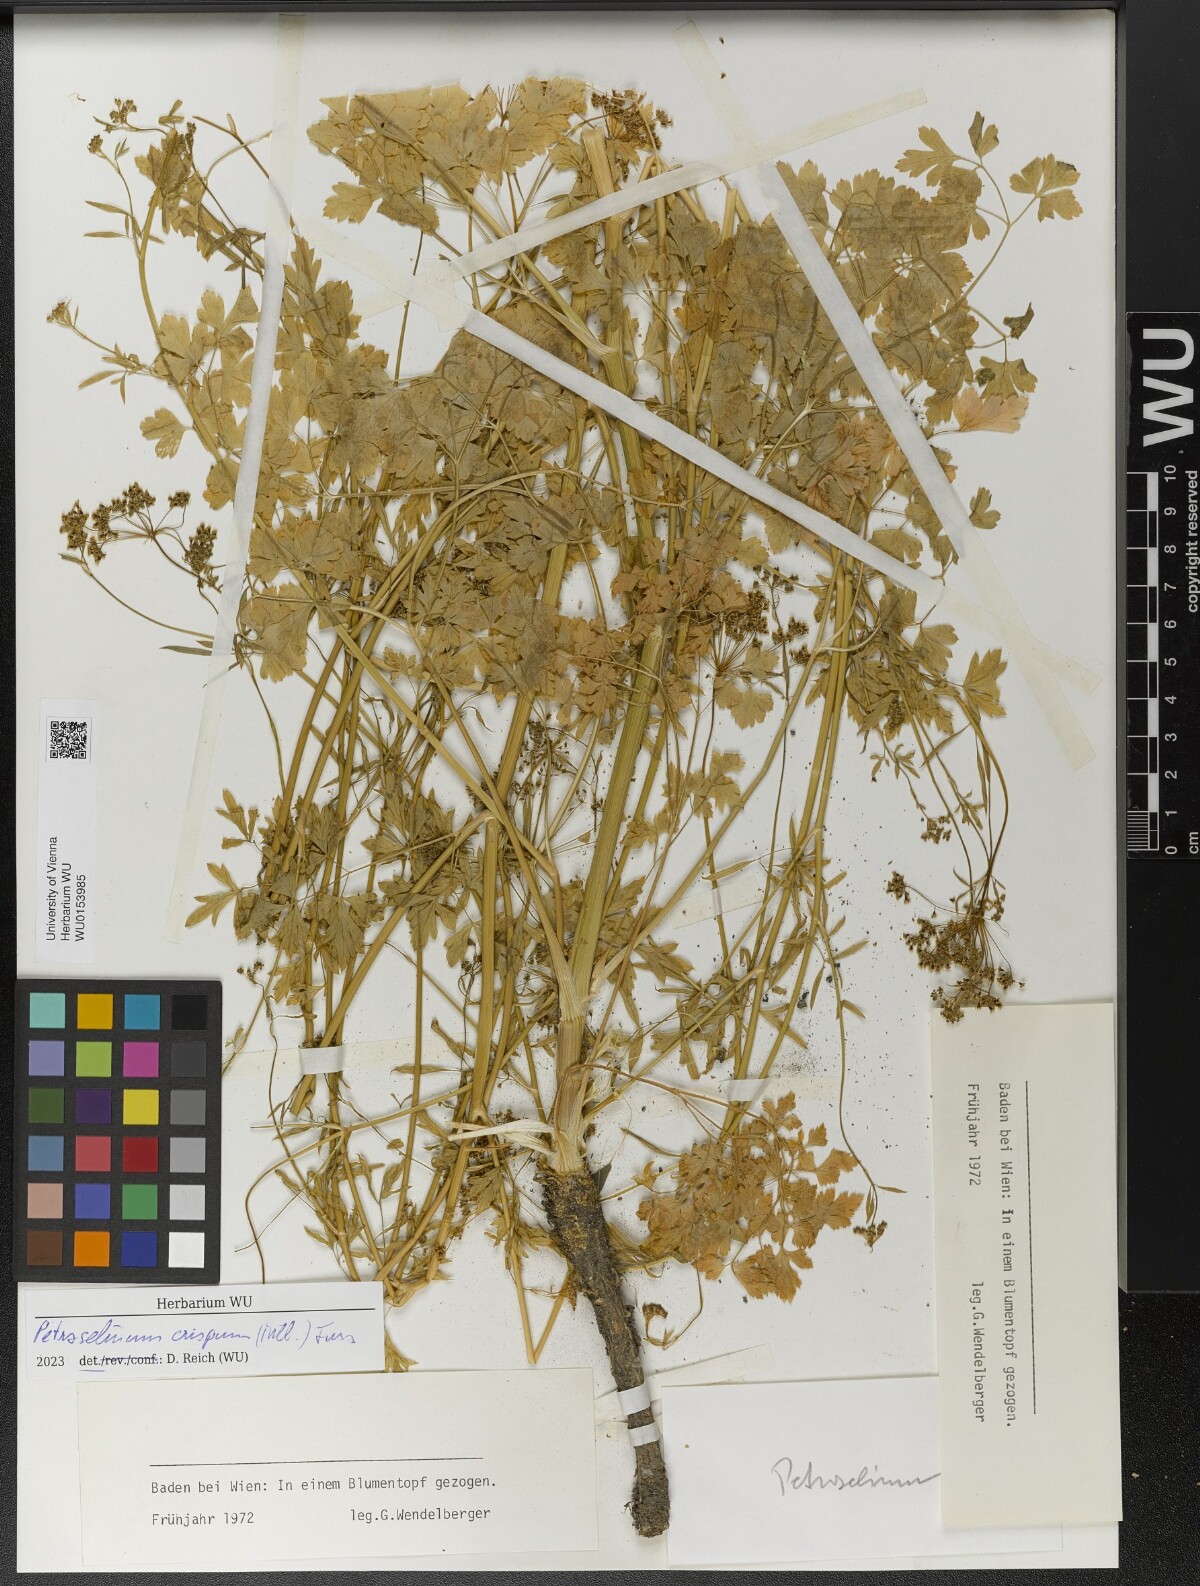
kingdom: Plantae
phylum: Tracheophyta
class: Magnoliopsida
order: Apiales
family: Apiaceae
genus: Petroselinum
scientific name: Petroselinum crispum
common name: Parsley
